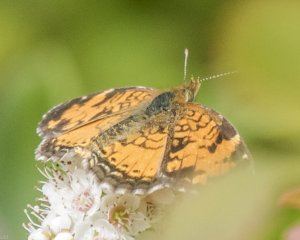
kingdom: Animalia
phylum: Arthropoda
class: Insecta
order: Lepidoptera
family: Nymphalidae
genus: Phyciodes
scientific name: Phyciodes tharos
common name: Northern Crescent
